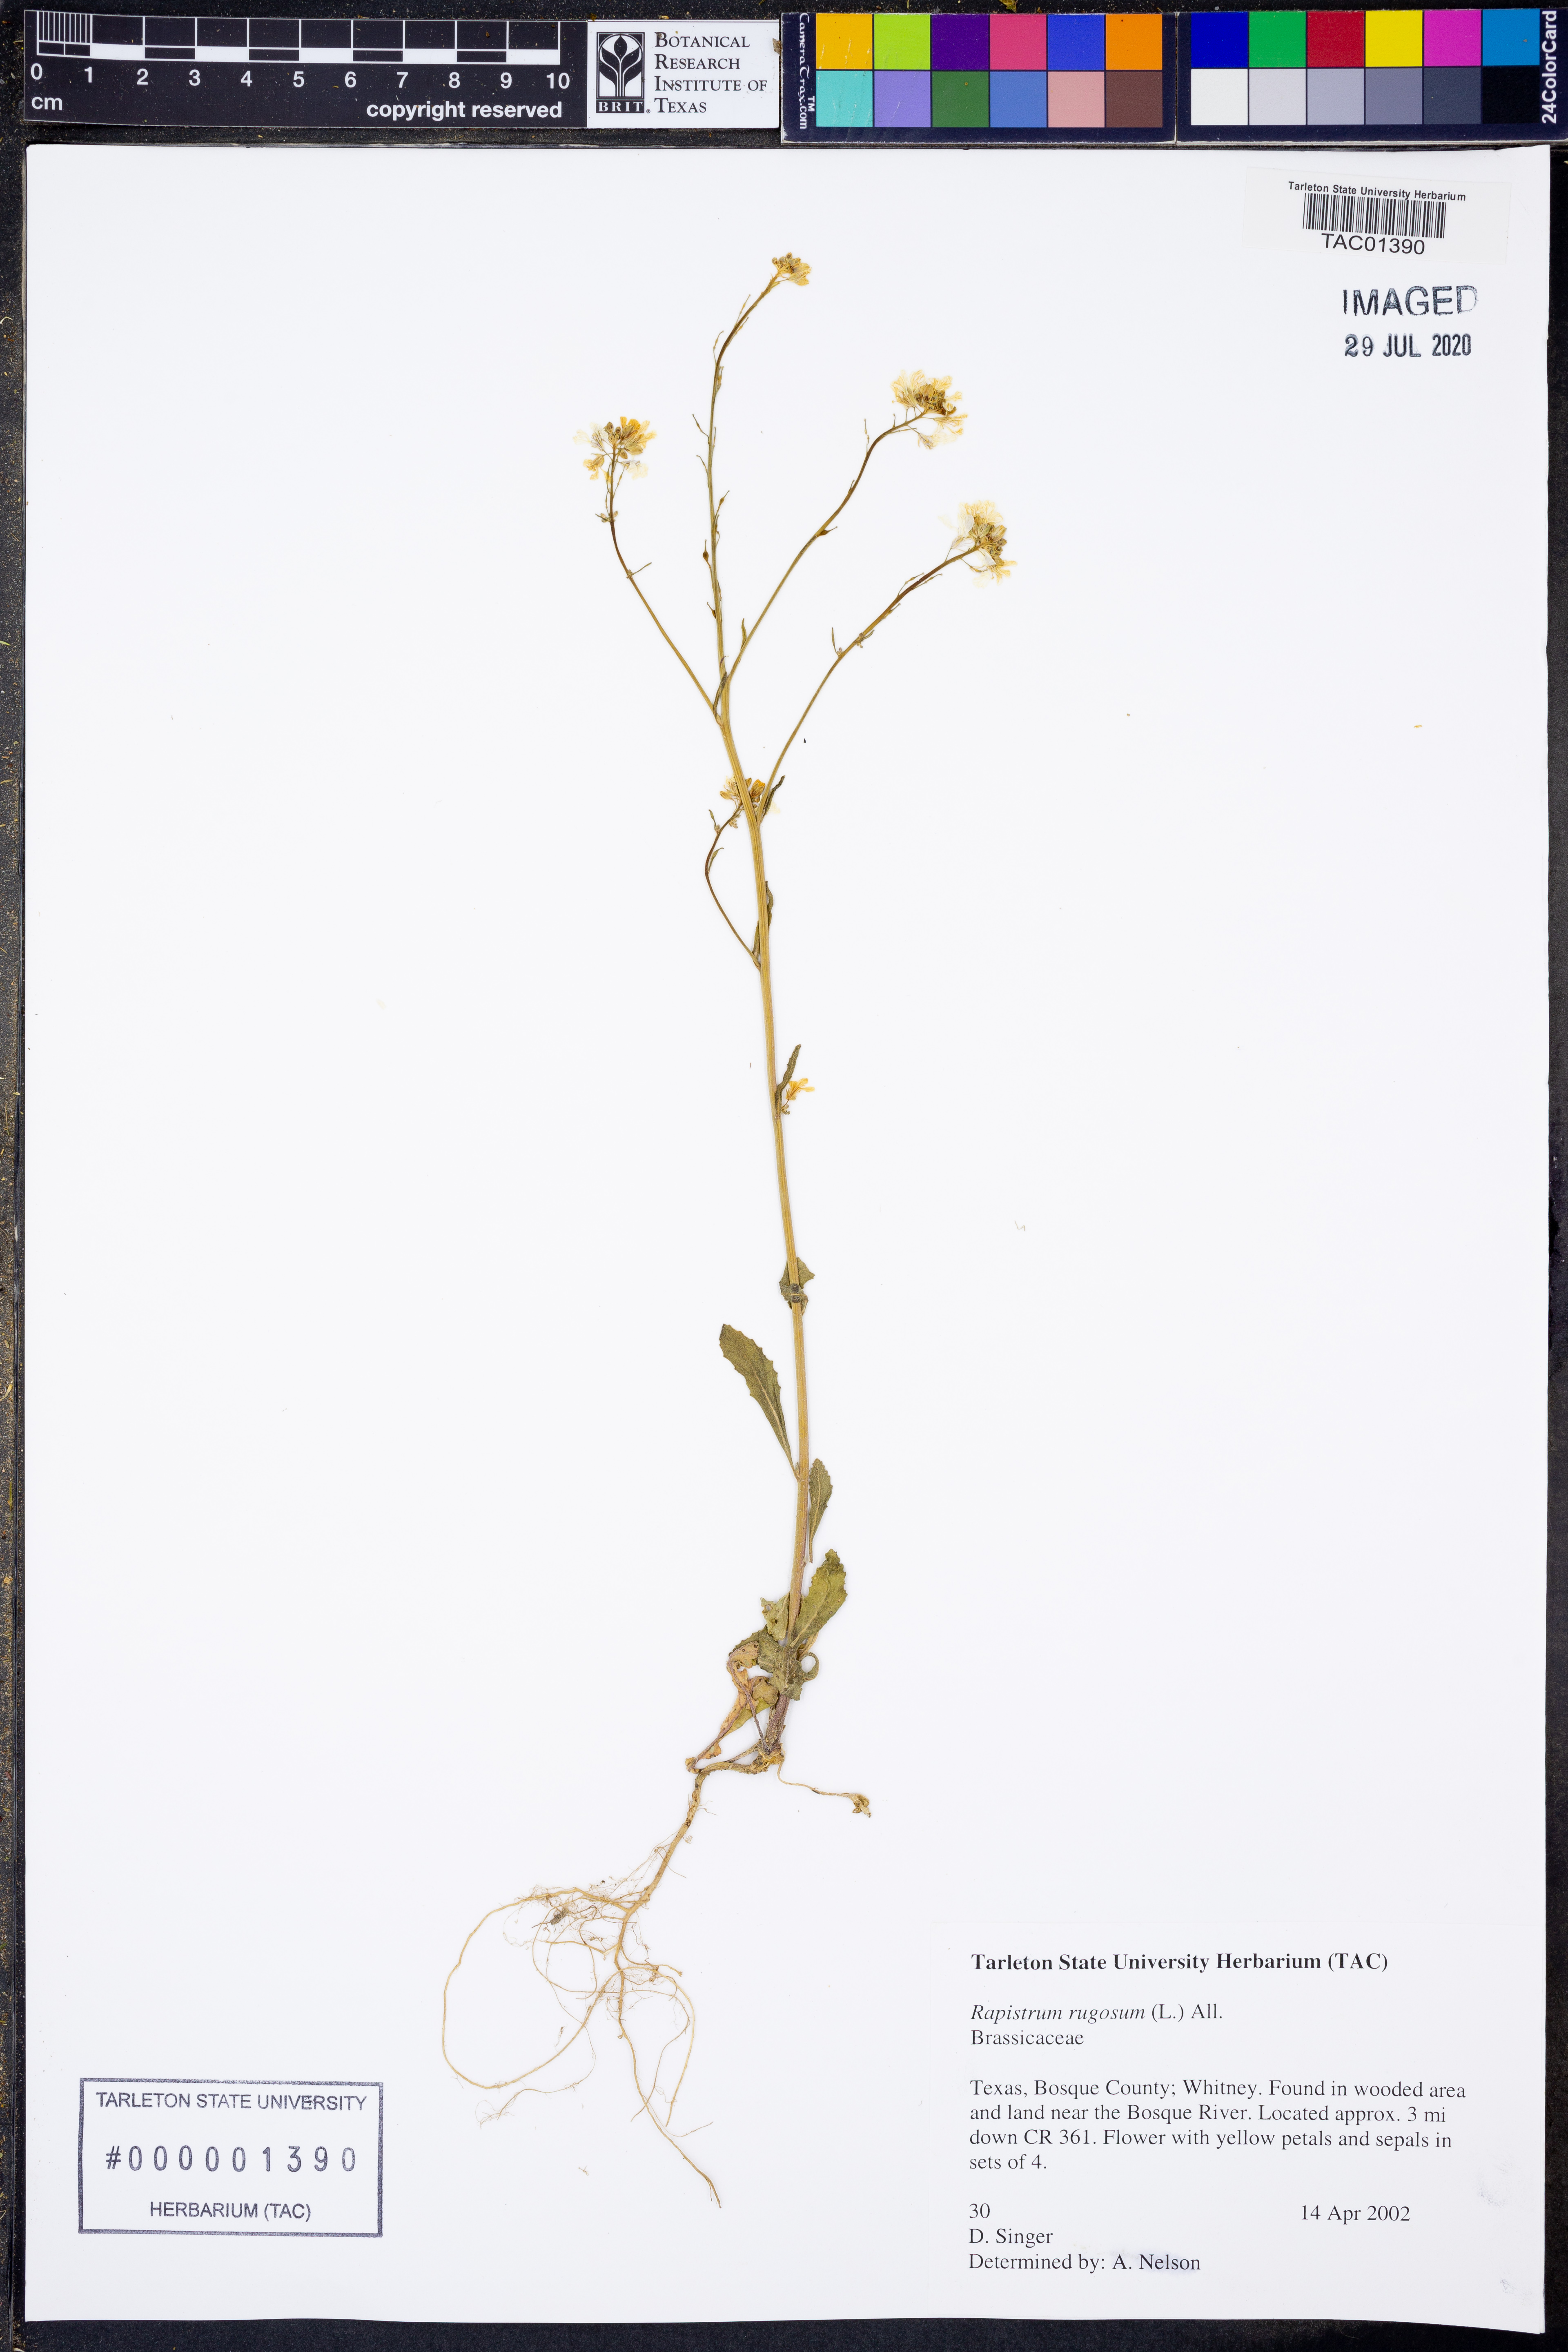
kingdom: Plantae
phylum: Tracheophyta
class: Magnoliopsida
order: Brassicales
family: Brassicaceae
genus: Rapistrum
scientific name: Rapistrum rugosum
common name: Annual bastardcabbage
